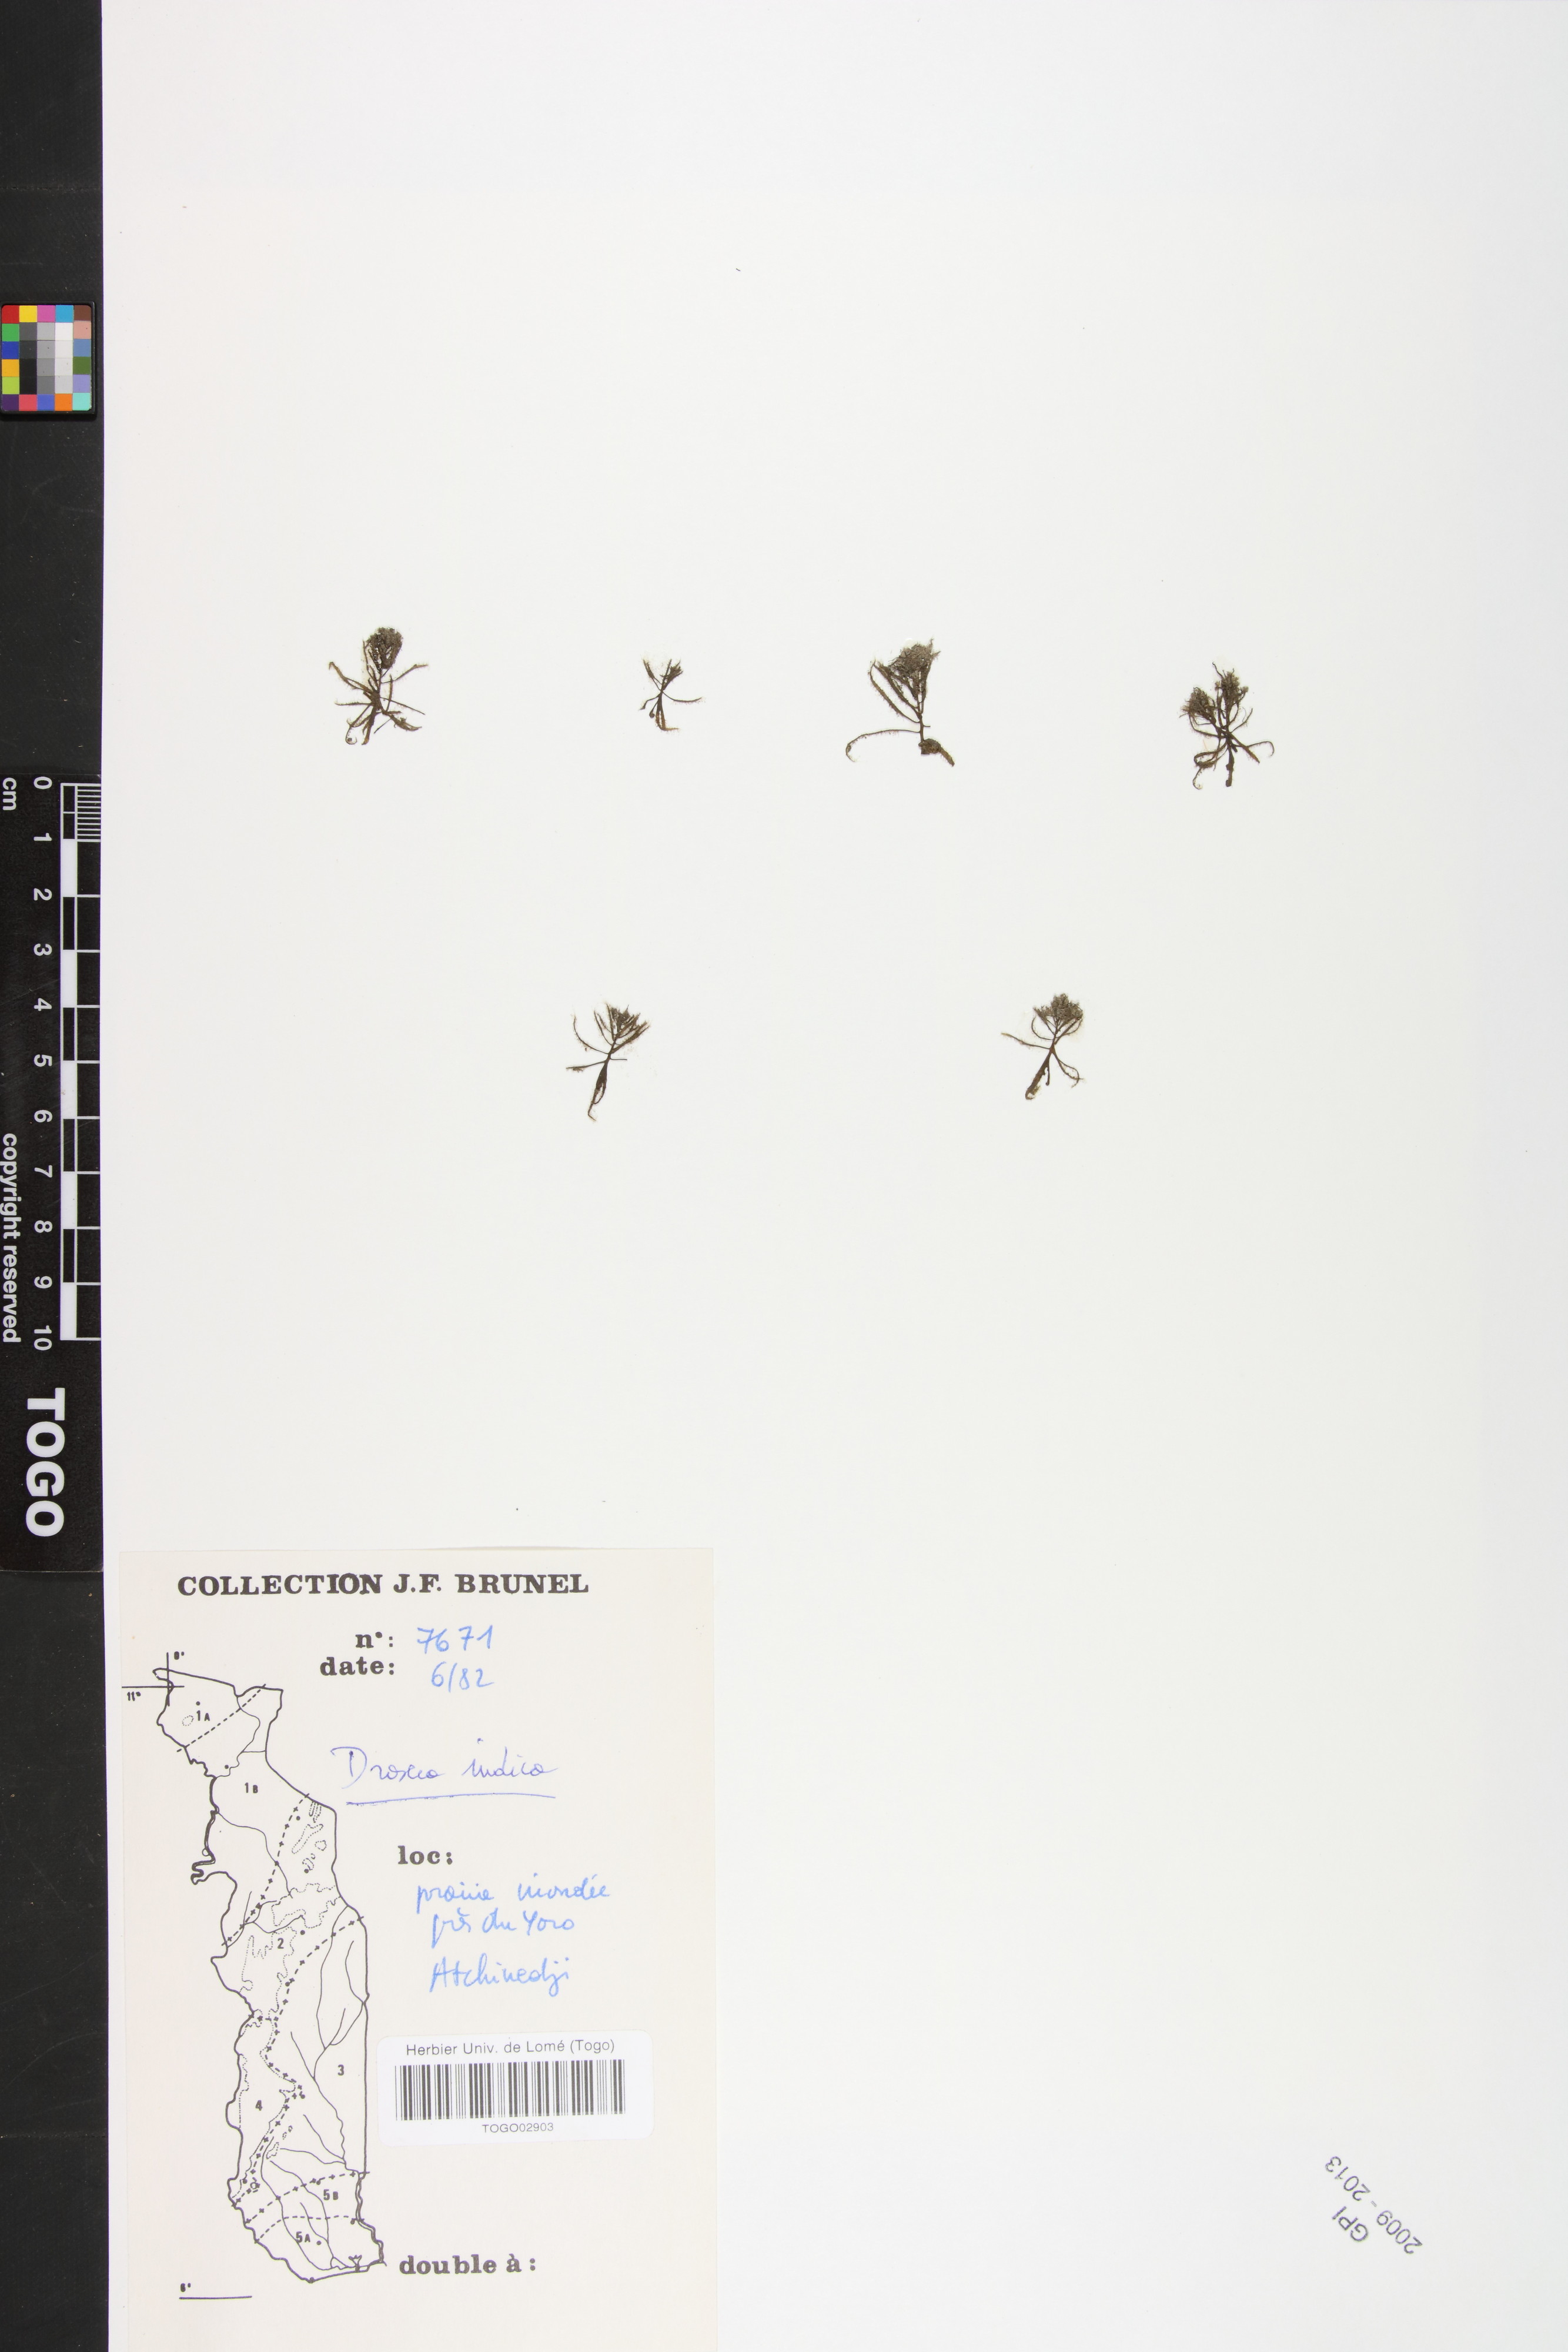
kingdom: Plantae
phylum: Tracheophyta
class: Magnoliopsida
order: Caryophyllales
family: Droseraceae
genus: Drosera
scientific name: Drosera indica
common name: Indian sundew
